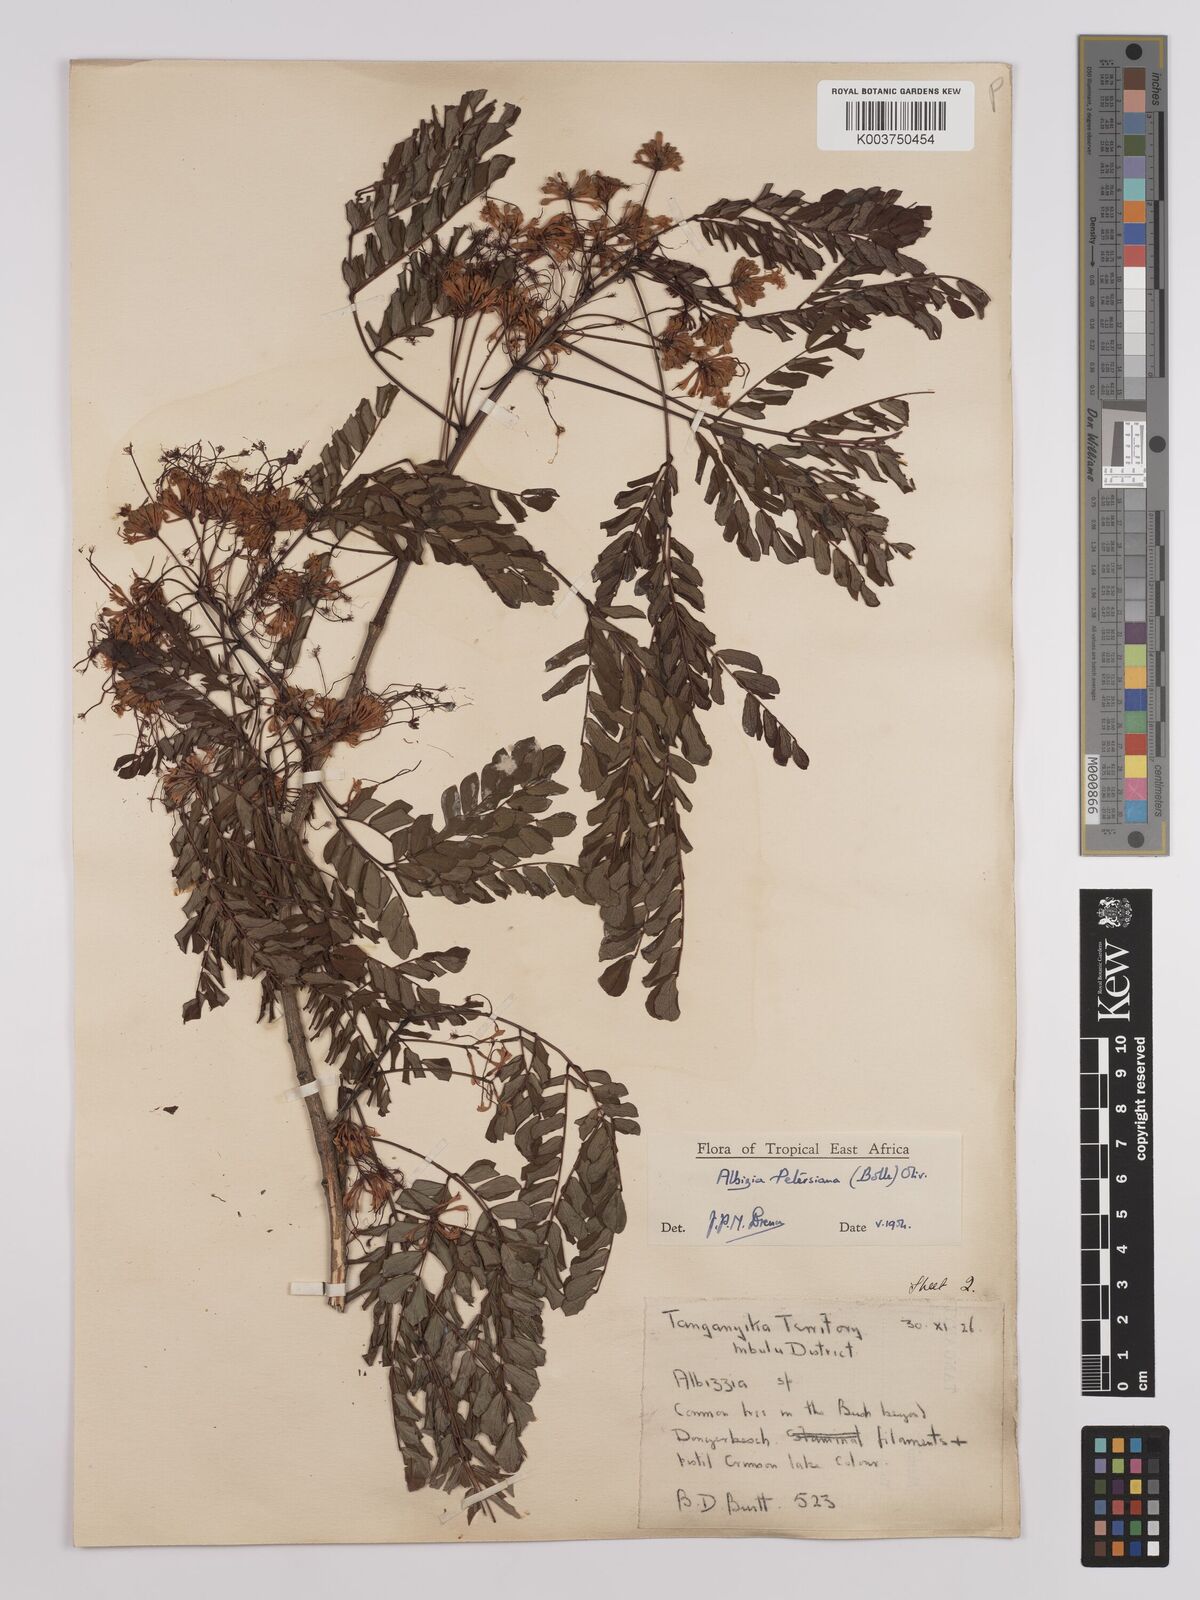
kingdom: Plantae
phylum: Tracheophyta
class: Magnoliopsida
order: Fabales
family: Fabaceae
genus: Albizia
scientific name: Albizia petersiana
